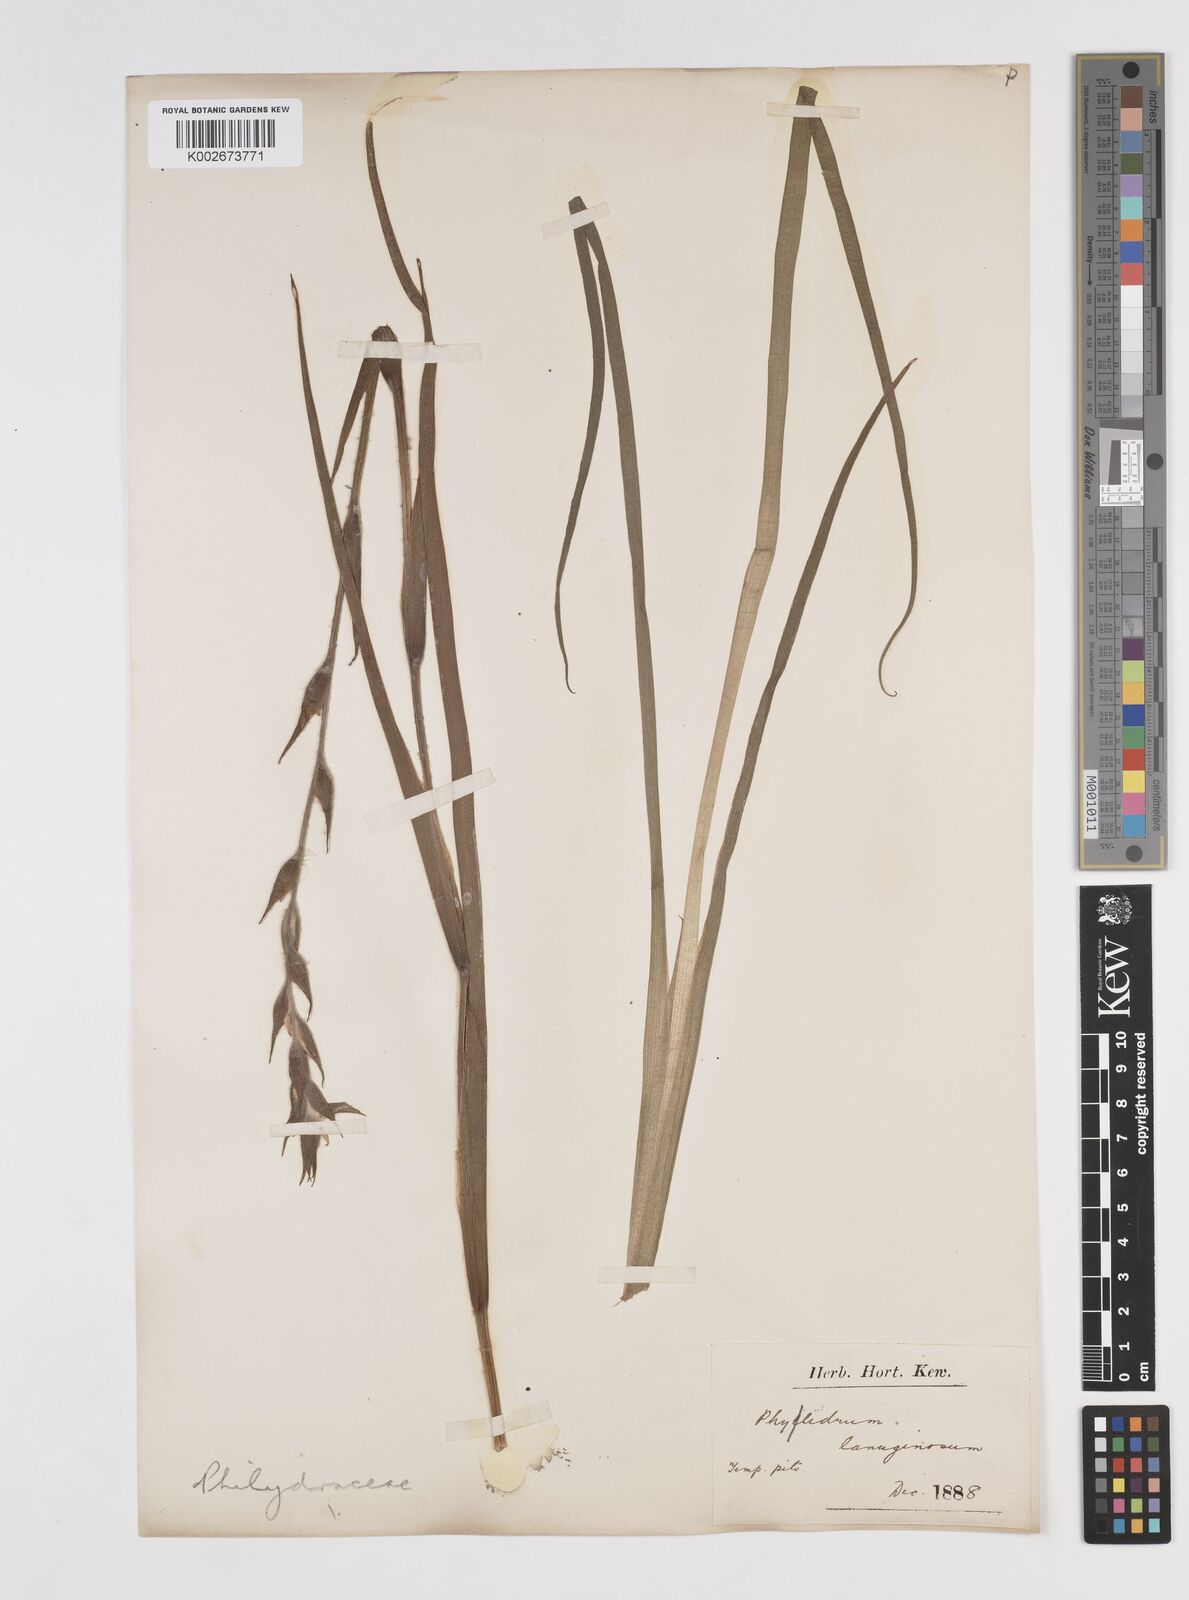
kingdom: Plantae
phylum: Tracheophyta
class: Liliopsida
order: Commelinales
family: Philydraceae
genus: Philydrum
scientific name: Philydrum lanuginosum
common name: Woolly frog's mouth
